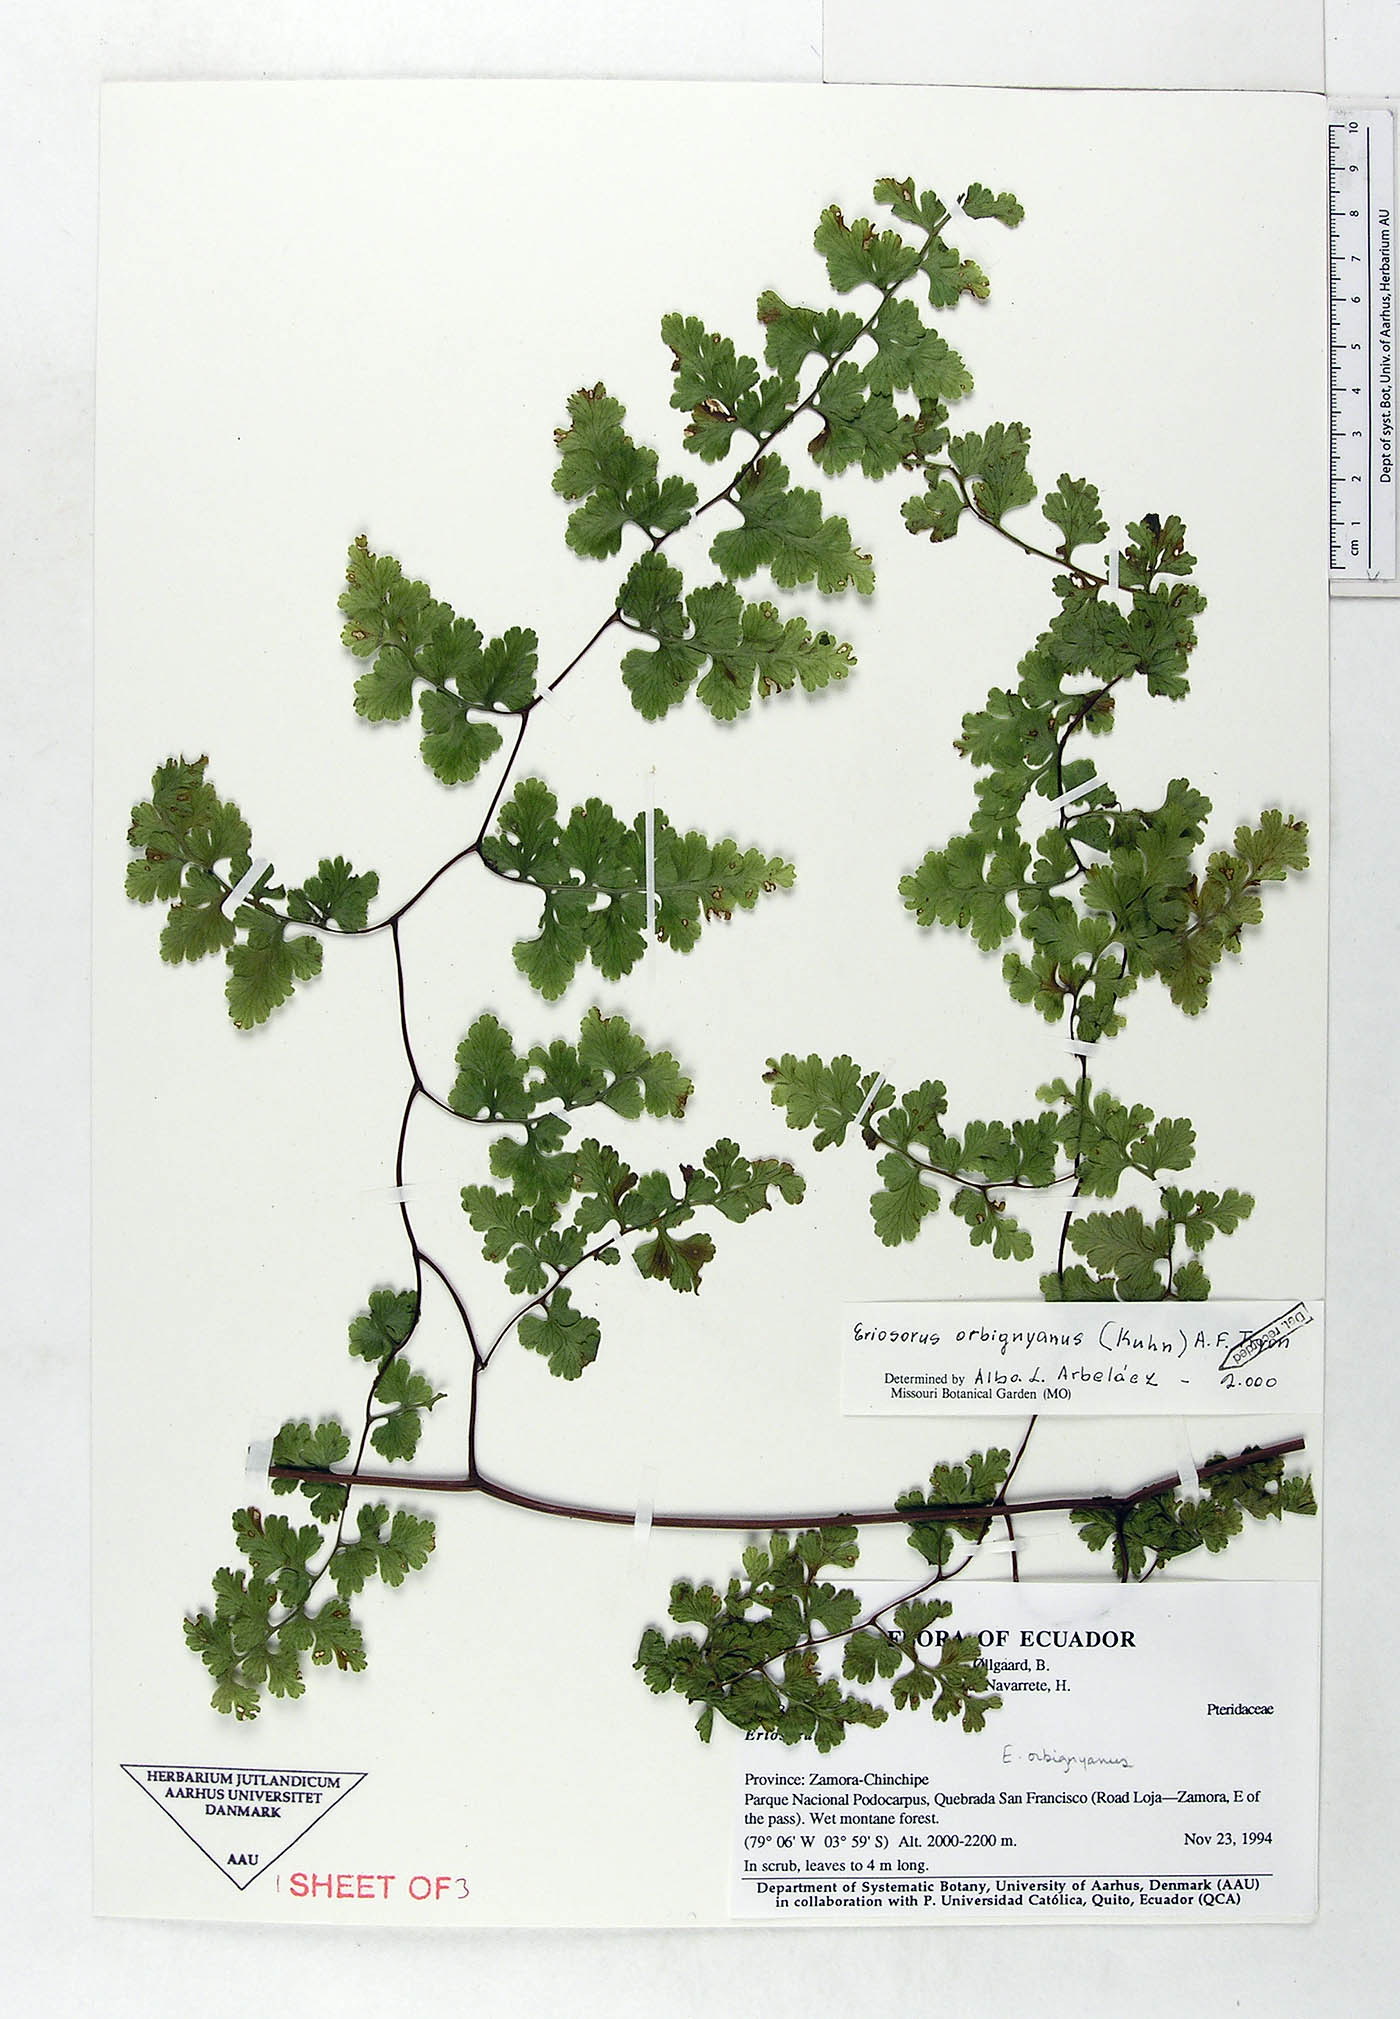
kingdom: Plantae
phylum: Tracheophyta
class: Polypodiopsida
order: Polypodiales
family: Pteridaceae
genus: Jamesonia
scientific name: Jamesonia orbignyana
